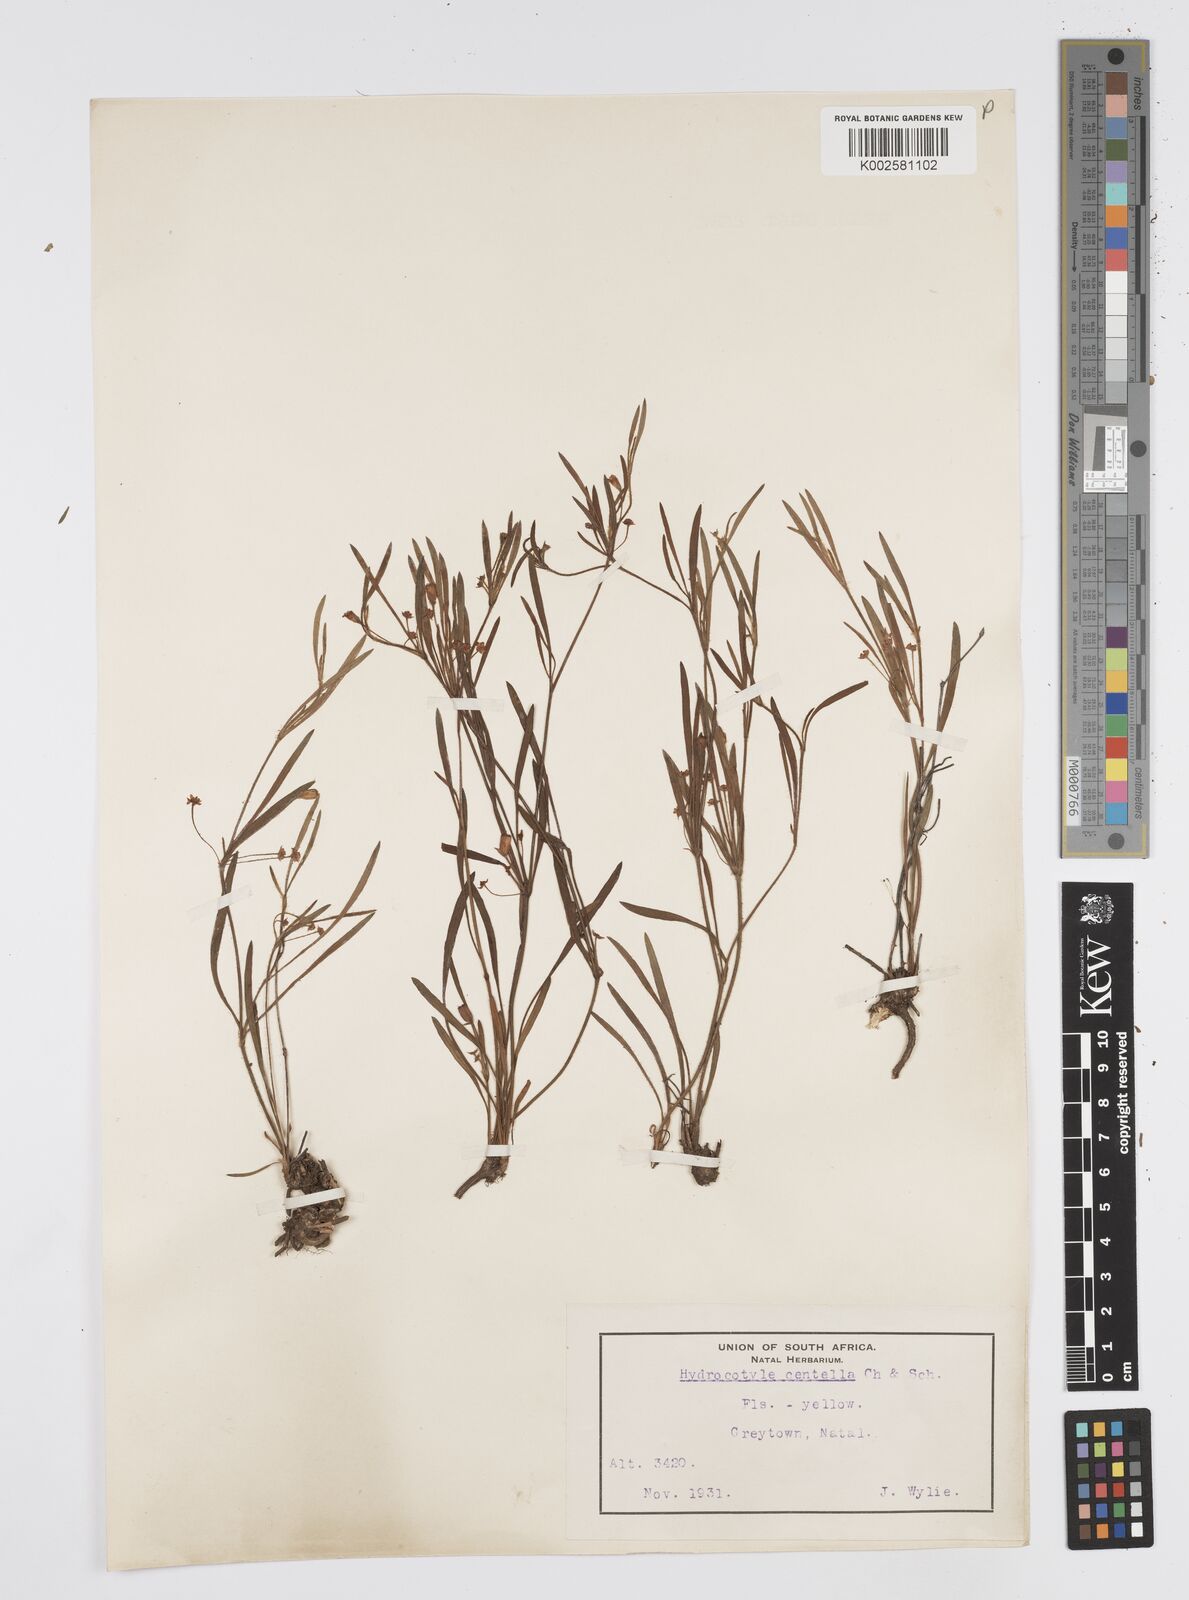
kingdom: Plantae
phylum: Tracheophyta
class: Magnoliopsida
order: Apiales
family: Apiaceae
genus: Centella
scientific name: Centella affinis
